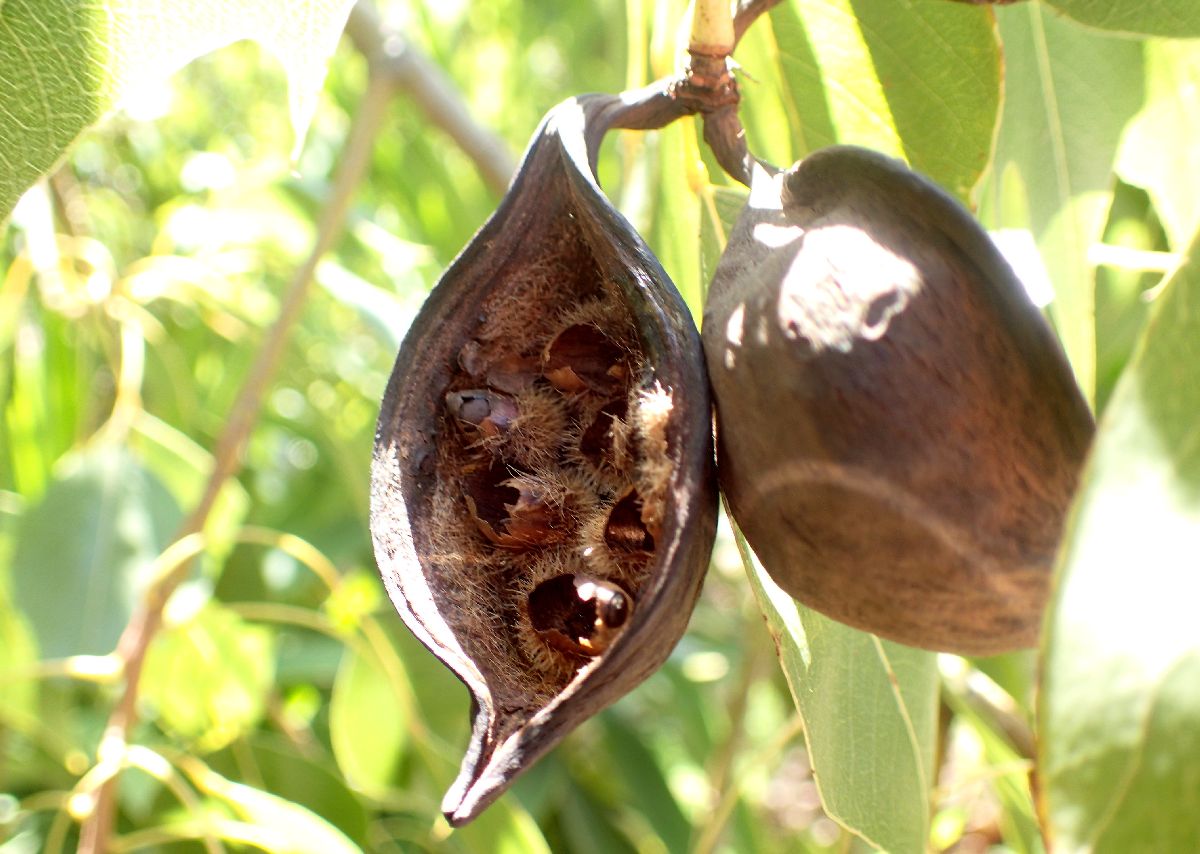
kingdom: Plantae
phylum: Tracheophyta
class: Magnoliopsida
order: Lamiales
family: Paulowniaceae
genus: Paulownia
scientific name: Paulownia
